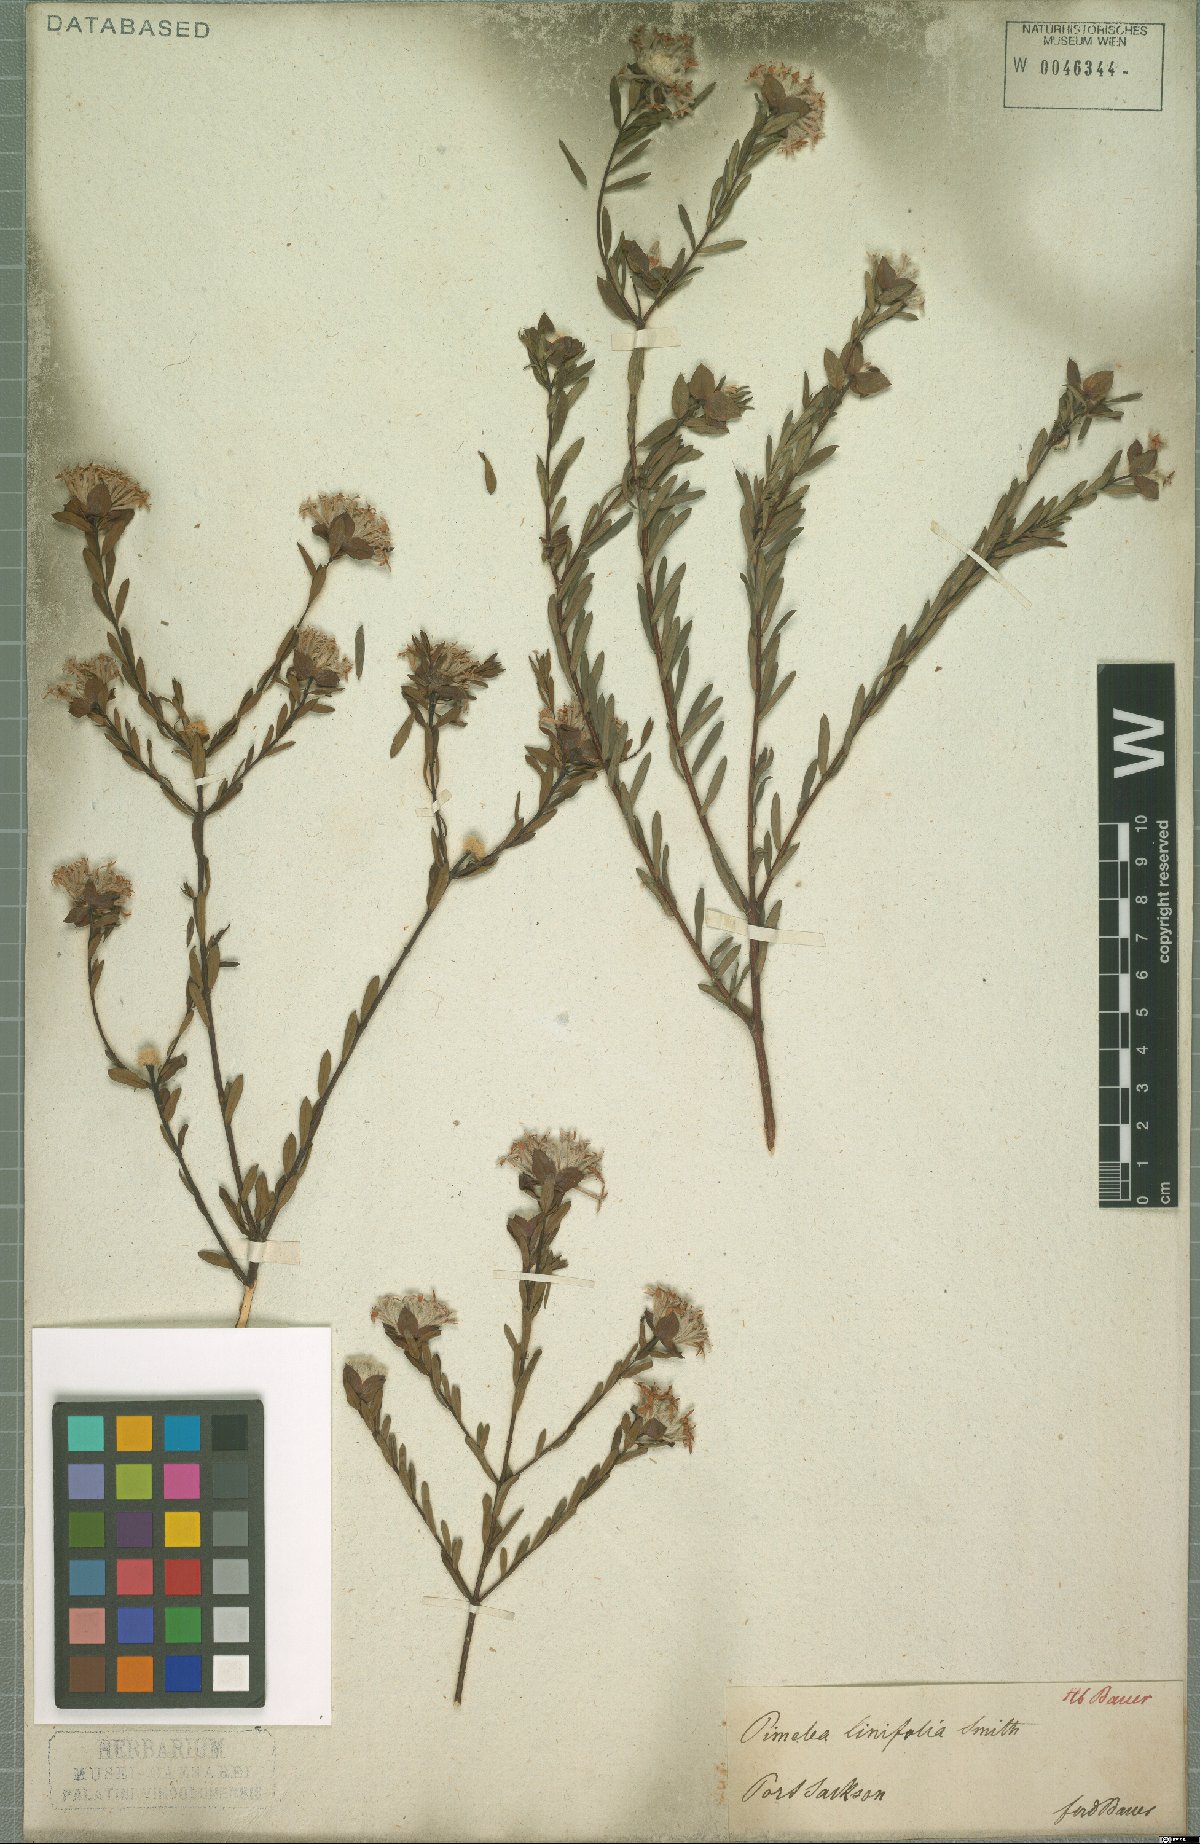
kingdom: Plantae
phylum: Tracheophyta
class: Magnoliopsida
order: Malvales
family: Thymelaeaceae
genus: Pimelea
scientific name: Pimelea linifolia
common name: Queen-of-the-bush
